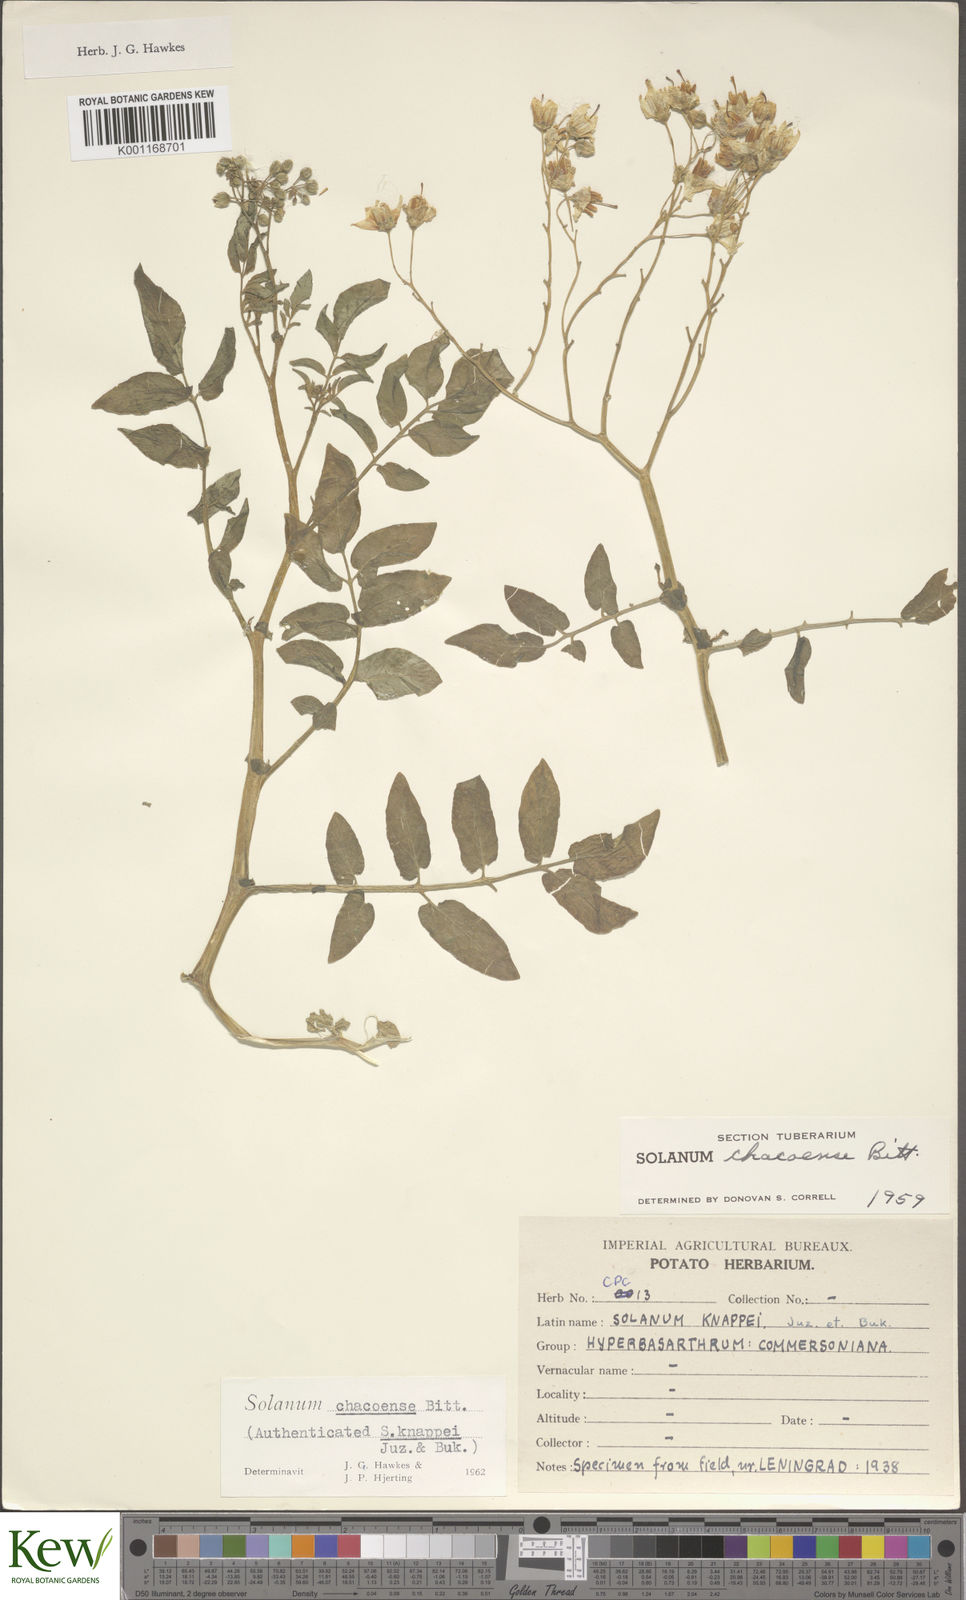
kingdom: Plantae
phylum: Tracheophyta
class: Magnoliopsida
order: Solanales
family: Solanaceae
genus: Solanum
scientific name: Solanum chacoense
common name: Chaco potato
